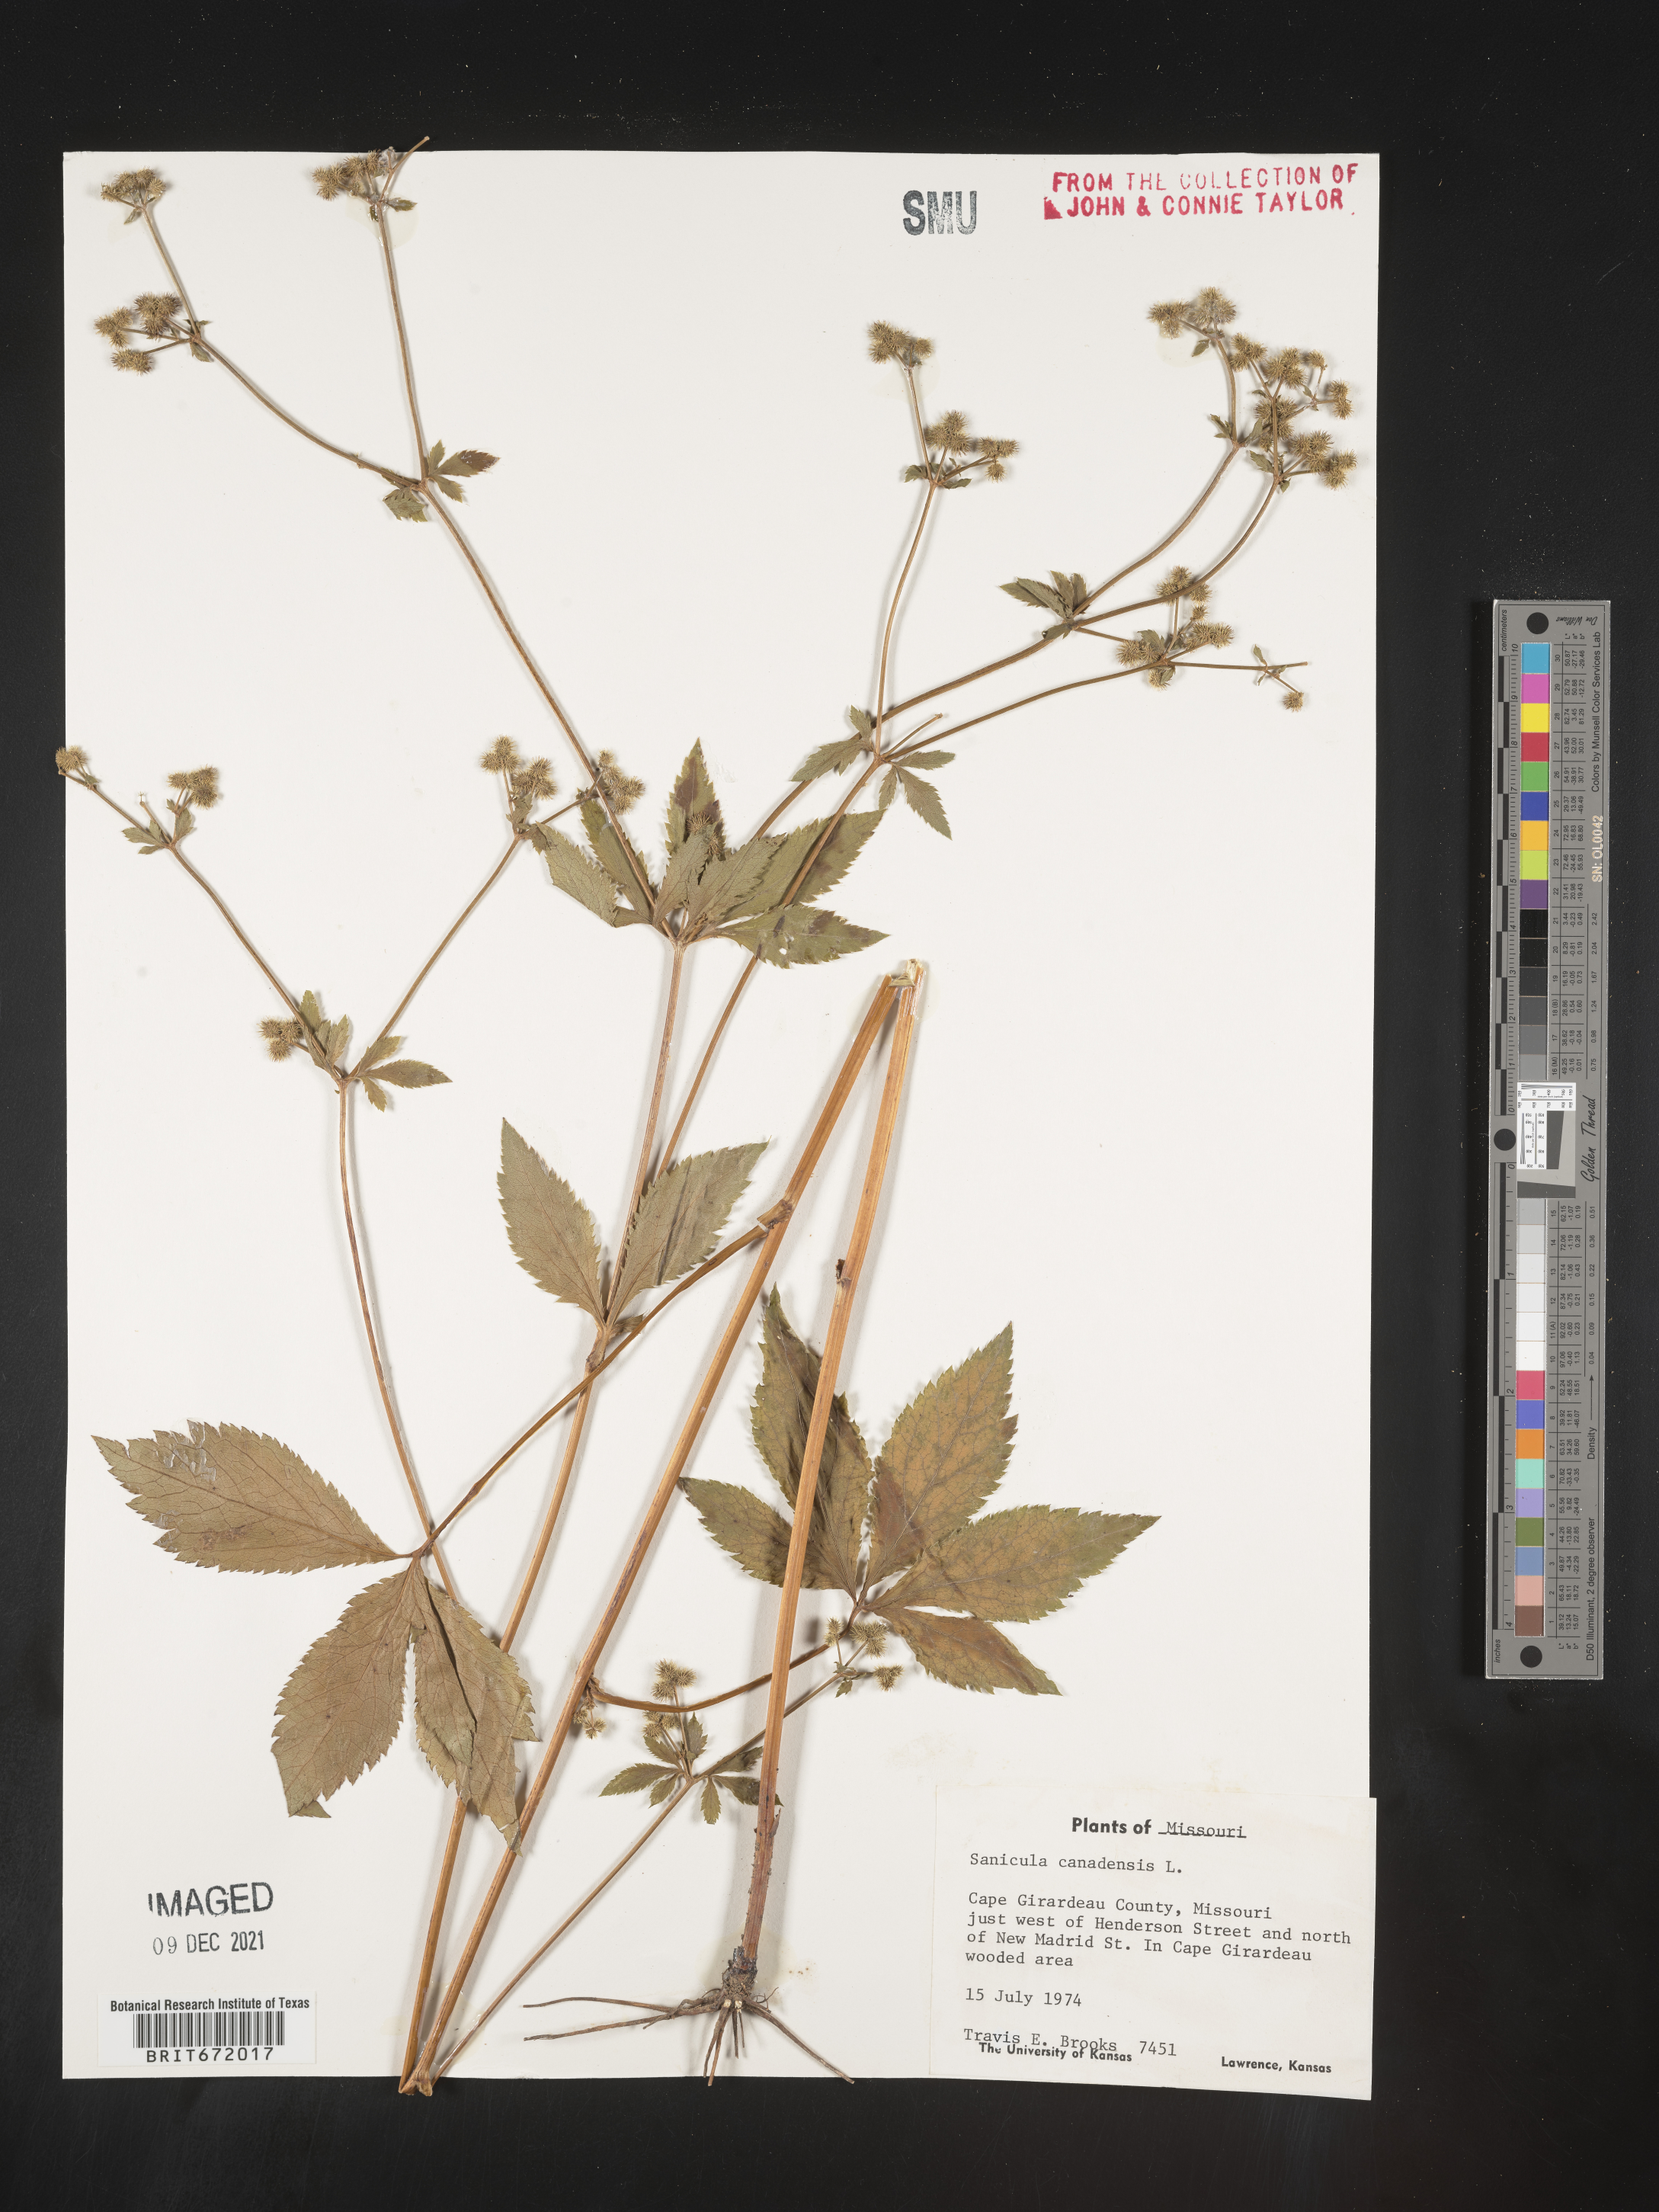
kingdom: Plantae
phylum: Tracheophyta
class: Magnoliopsida
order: Apiales
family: Apiaceae
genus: Sanicula
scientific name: Sanicula canadensis
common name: Canada sanicle
